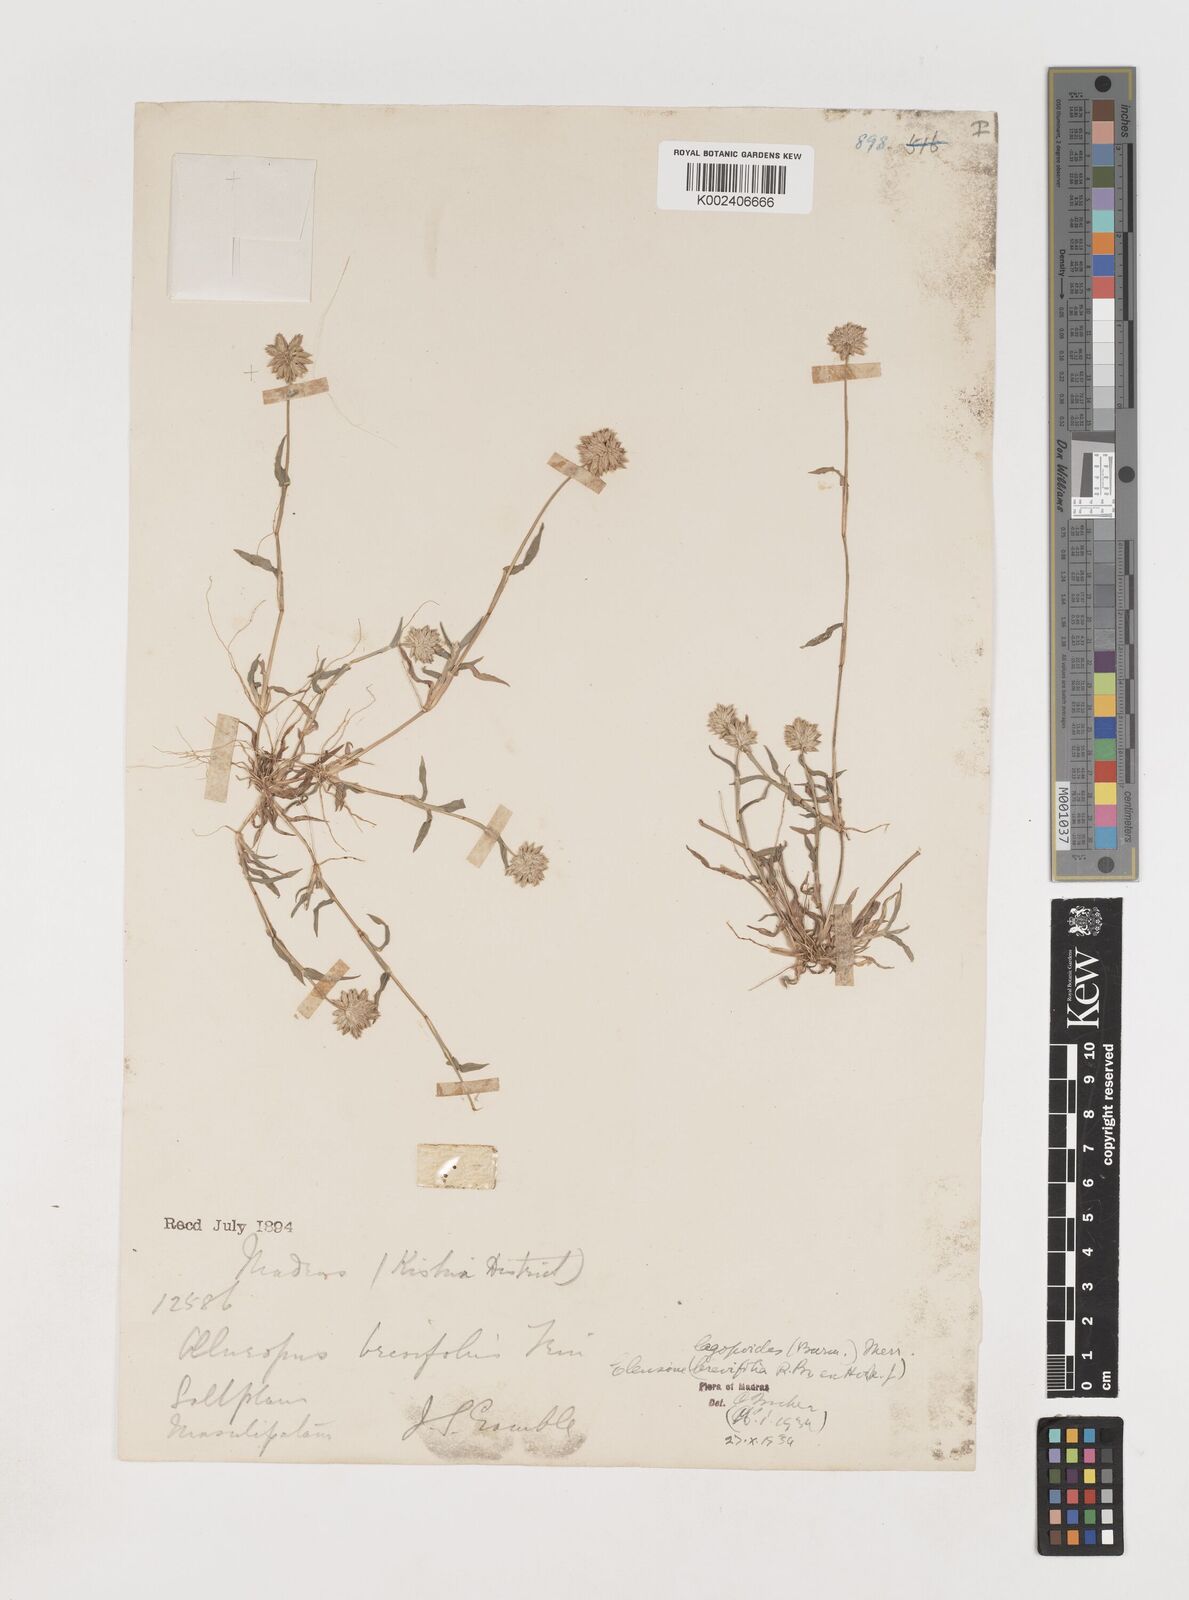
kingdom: Plantae
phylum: Tracheophyta
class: Liliopsida
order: Poales
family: Poaceae
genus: Coelachyrum
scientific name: Coelachyrum lagopoides
